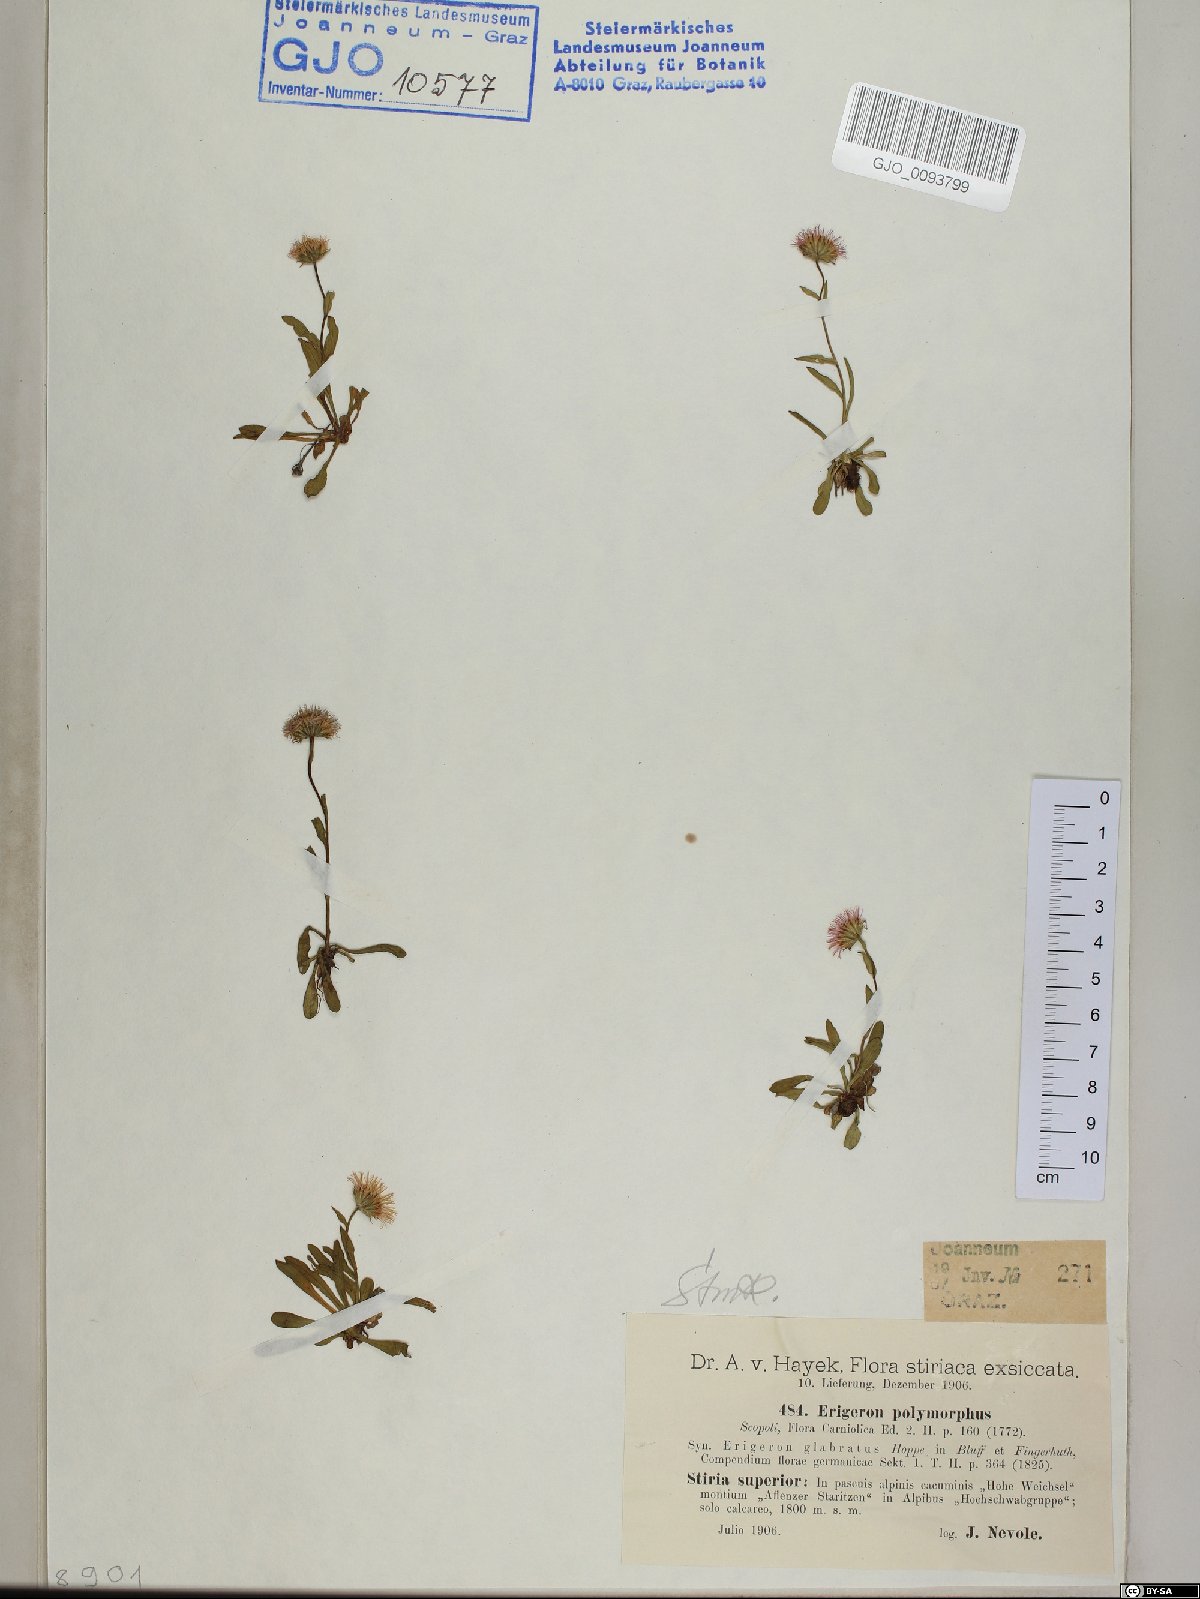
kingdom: Plantae
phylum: Tracheophyta
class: Magnoliopsida
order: Asterales
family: Asteraceae
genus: Erigeron
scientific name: Erigeron alpinus
